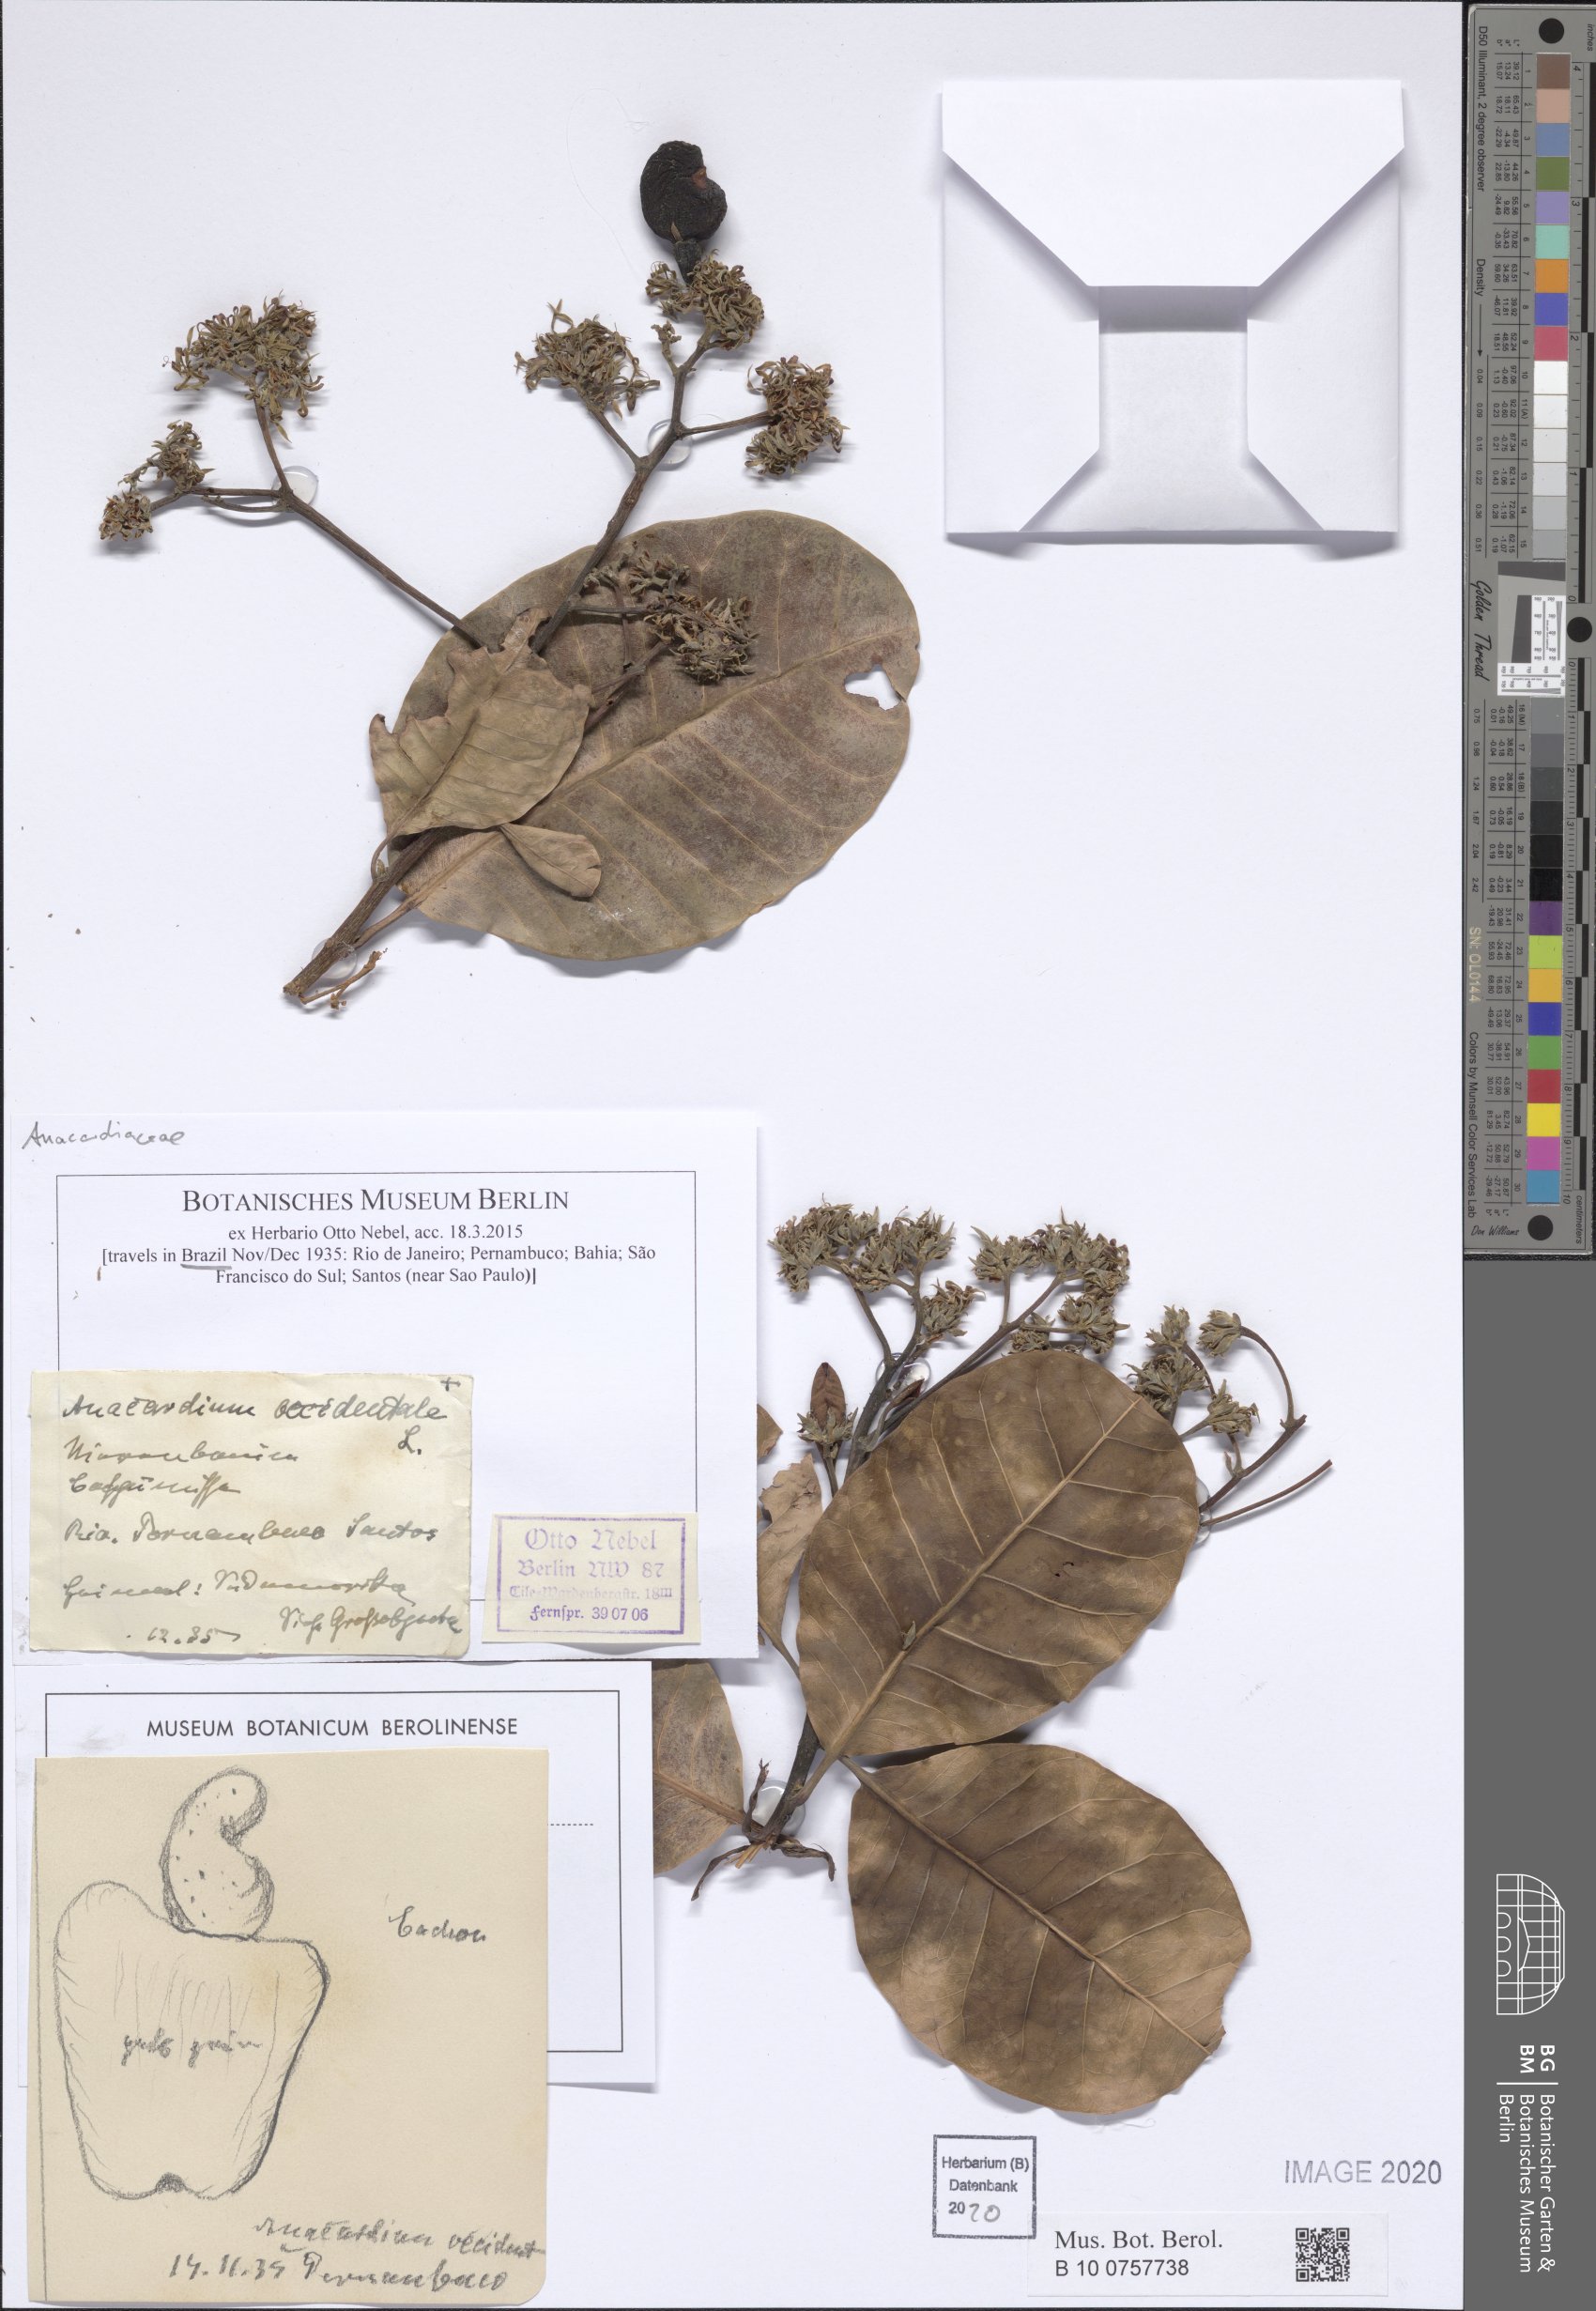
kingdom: Plantae
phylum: Tracheophyta
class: Magnoliopsida
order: Sapindales
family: Anacardiaceae
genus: Anacardium
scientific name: Anacardium occidentale
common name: Cashew
